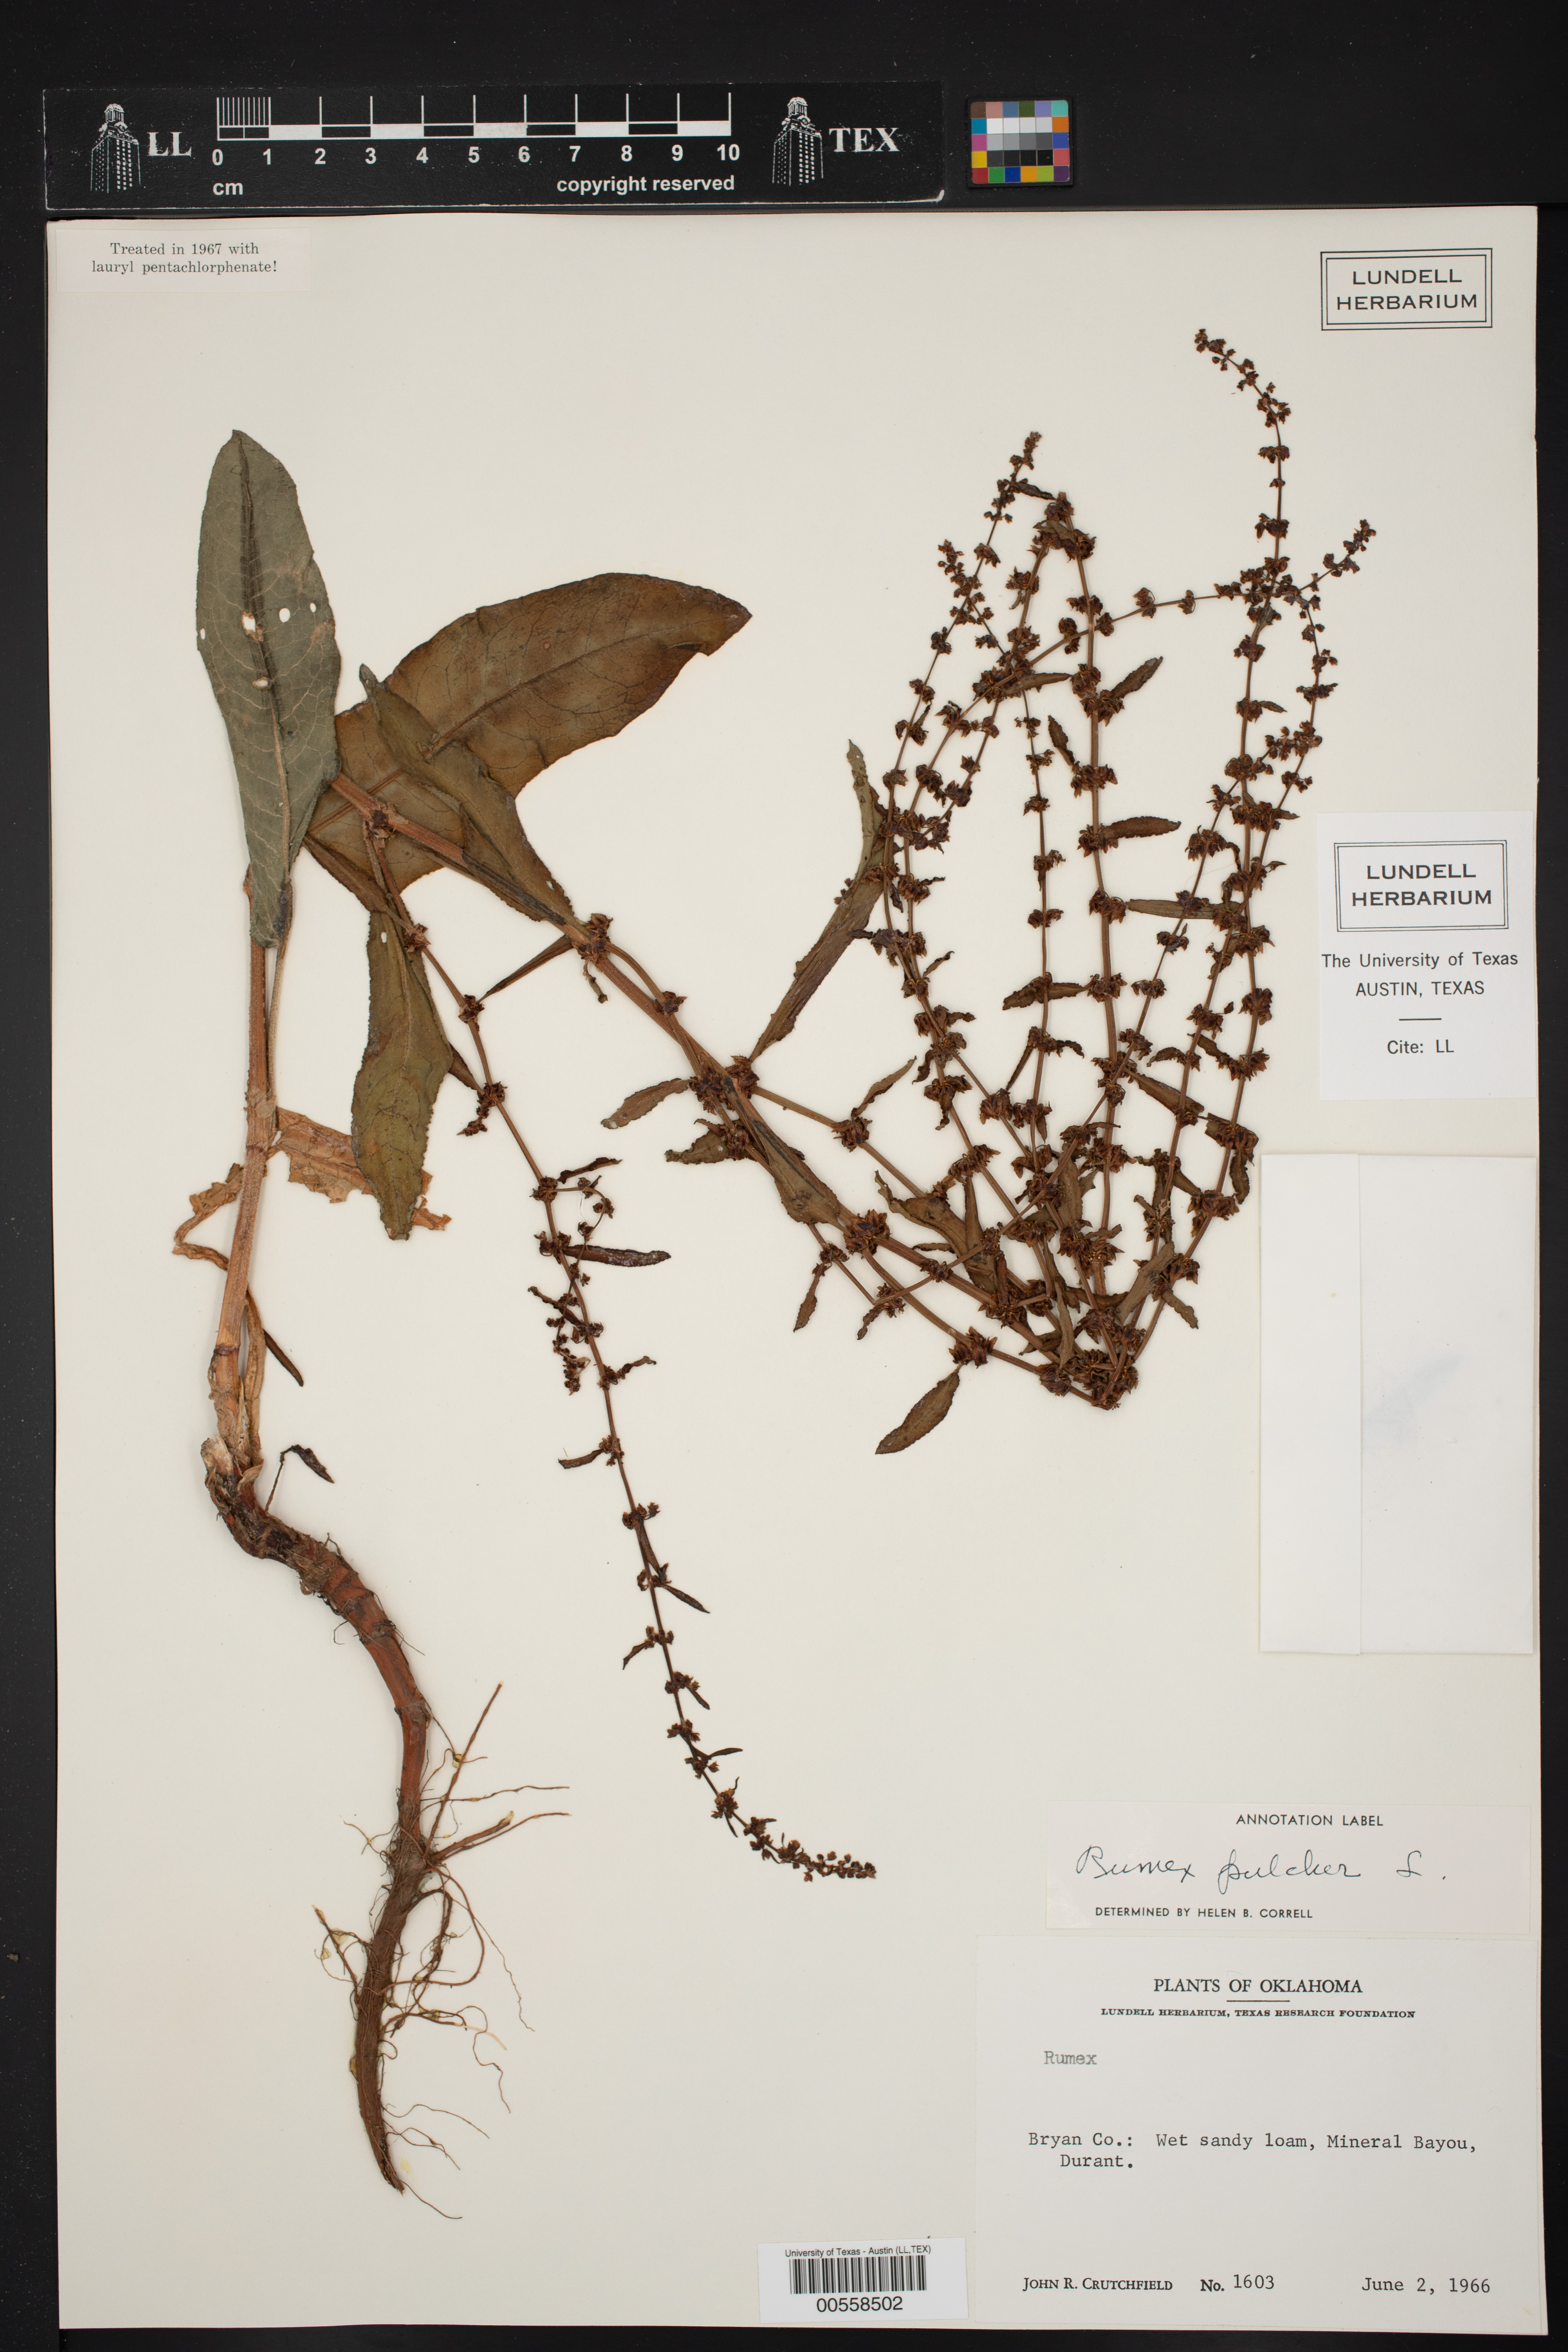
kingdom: Plantae
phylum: Tracheophyta
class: Magnoliopsida
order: Caryophyllales
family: Polygonaceae
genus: Rumex
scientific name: Rumex pulcher
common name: Fiddle dock
